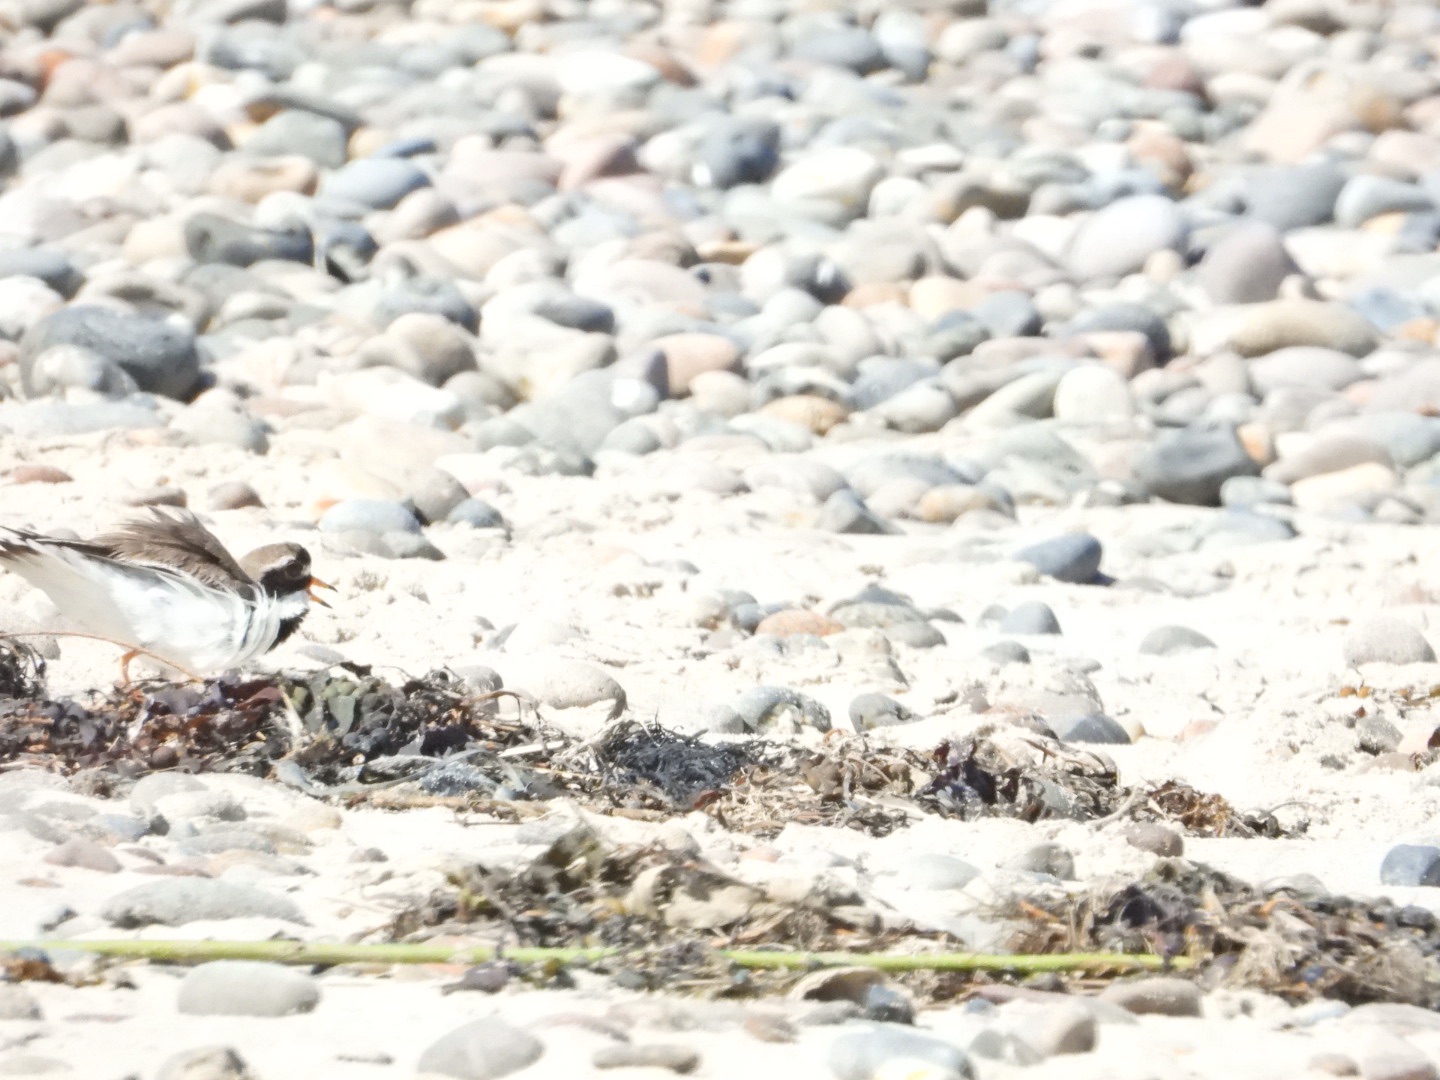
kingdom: Animalia
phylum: Chordata
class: Aves
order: Charadriiformes
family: Charadriidae
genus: Charadrius
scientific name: Charadrius hiaticula
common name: Stor præstekrave
